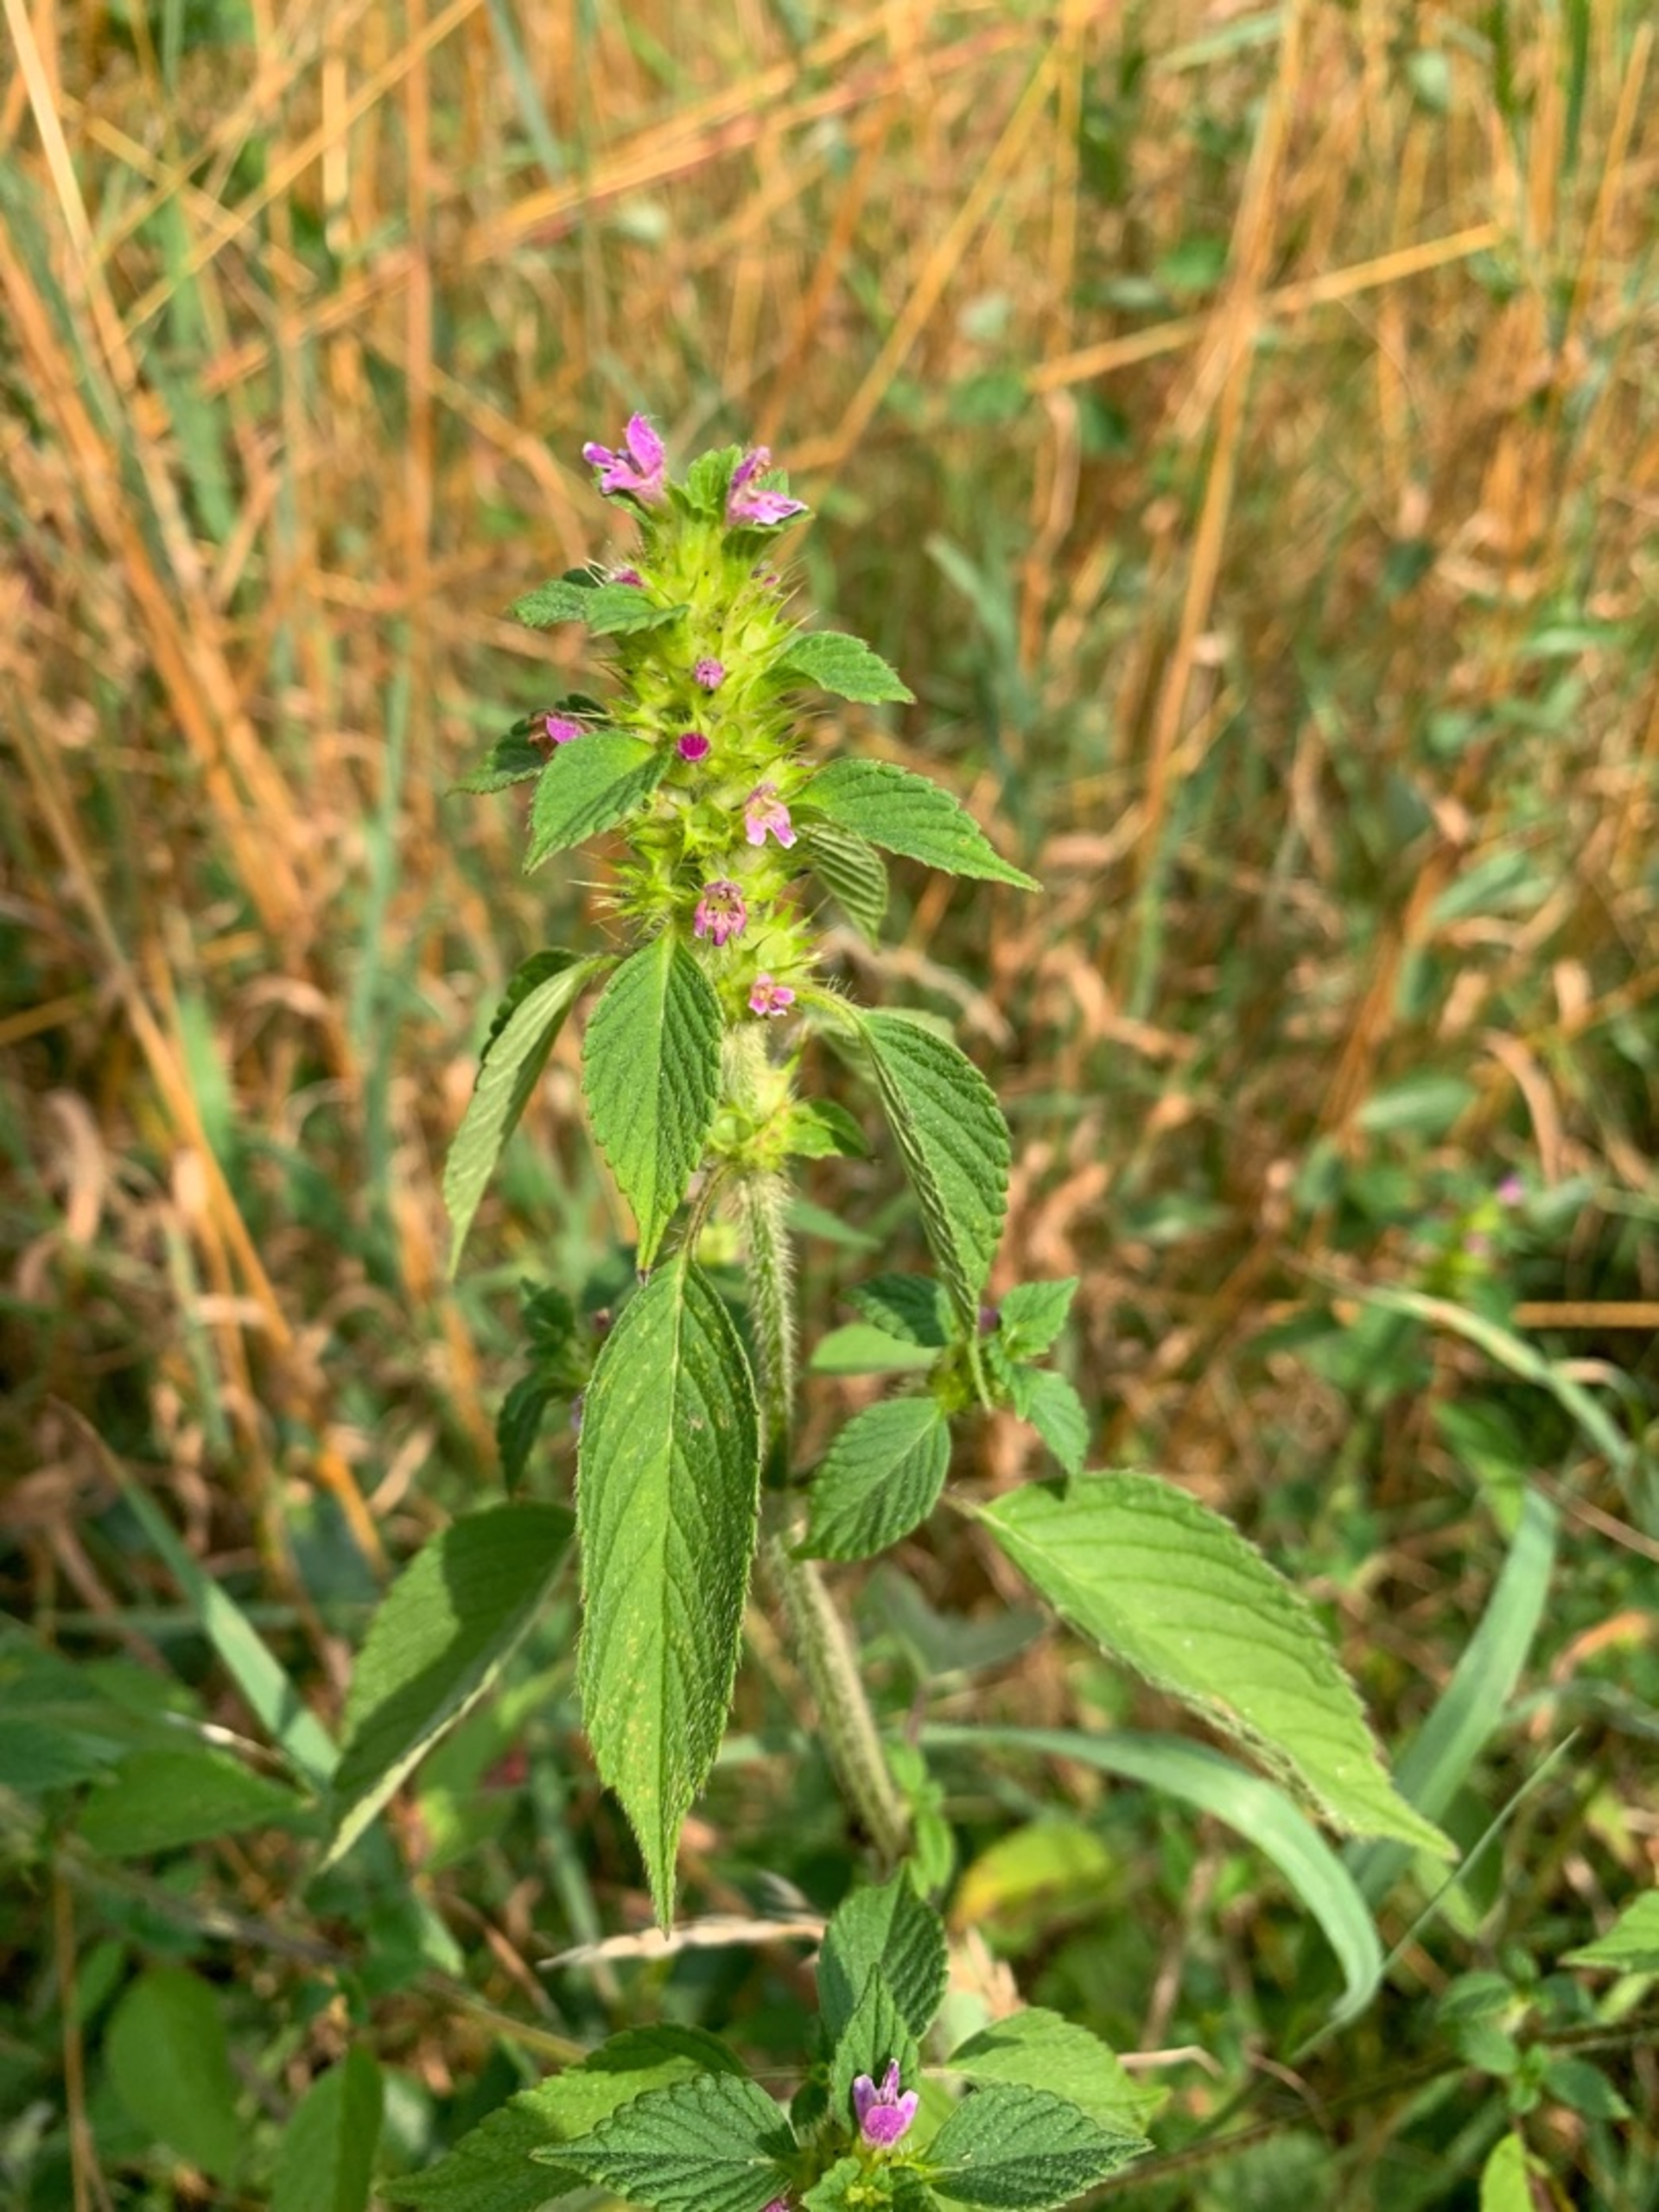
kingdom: Plantae
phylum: Tracheophyta
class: Magnoliopsida
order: Lamiales
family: Lamiaceae
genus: Galeopsis
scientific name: Galeopsis bifida
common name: Skov-hanekro
